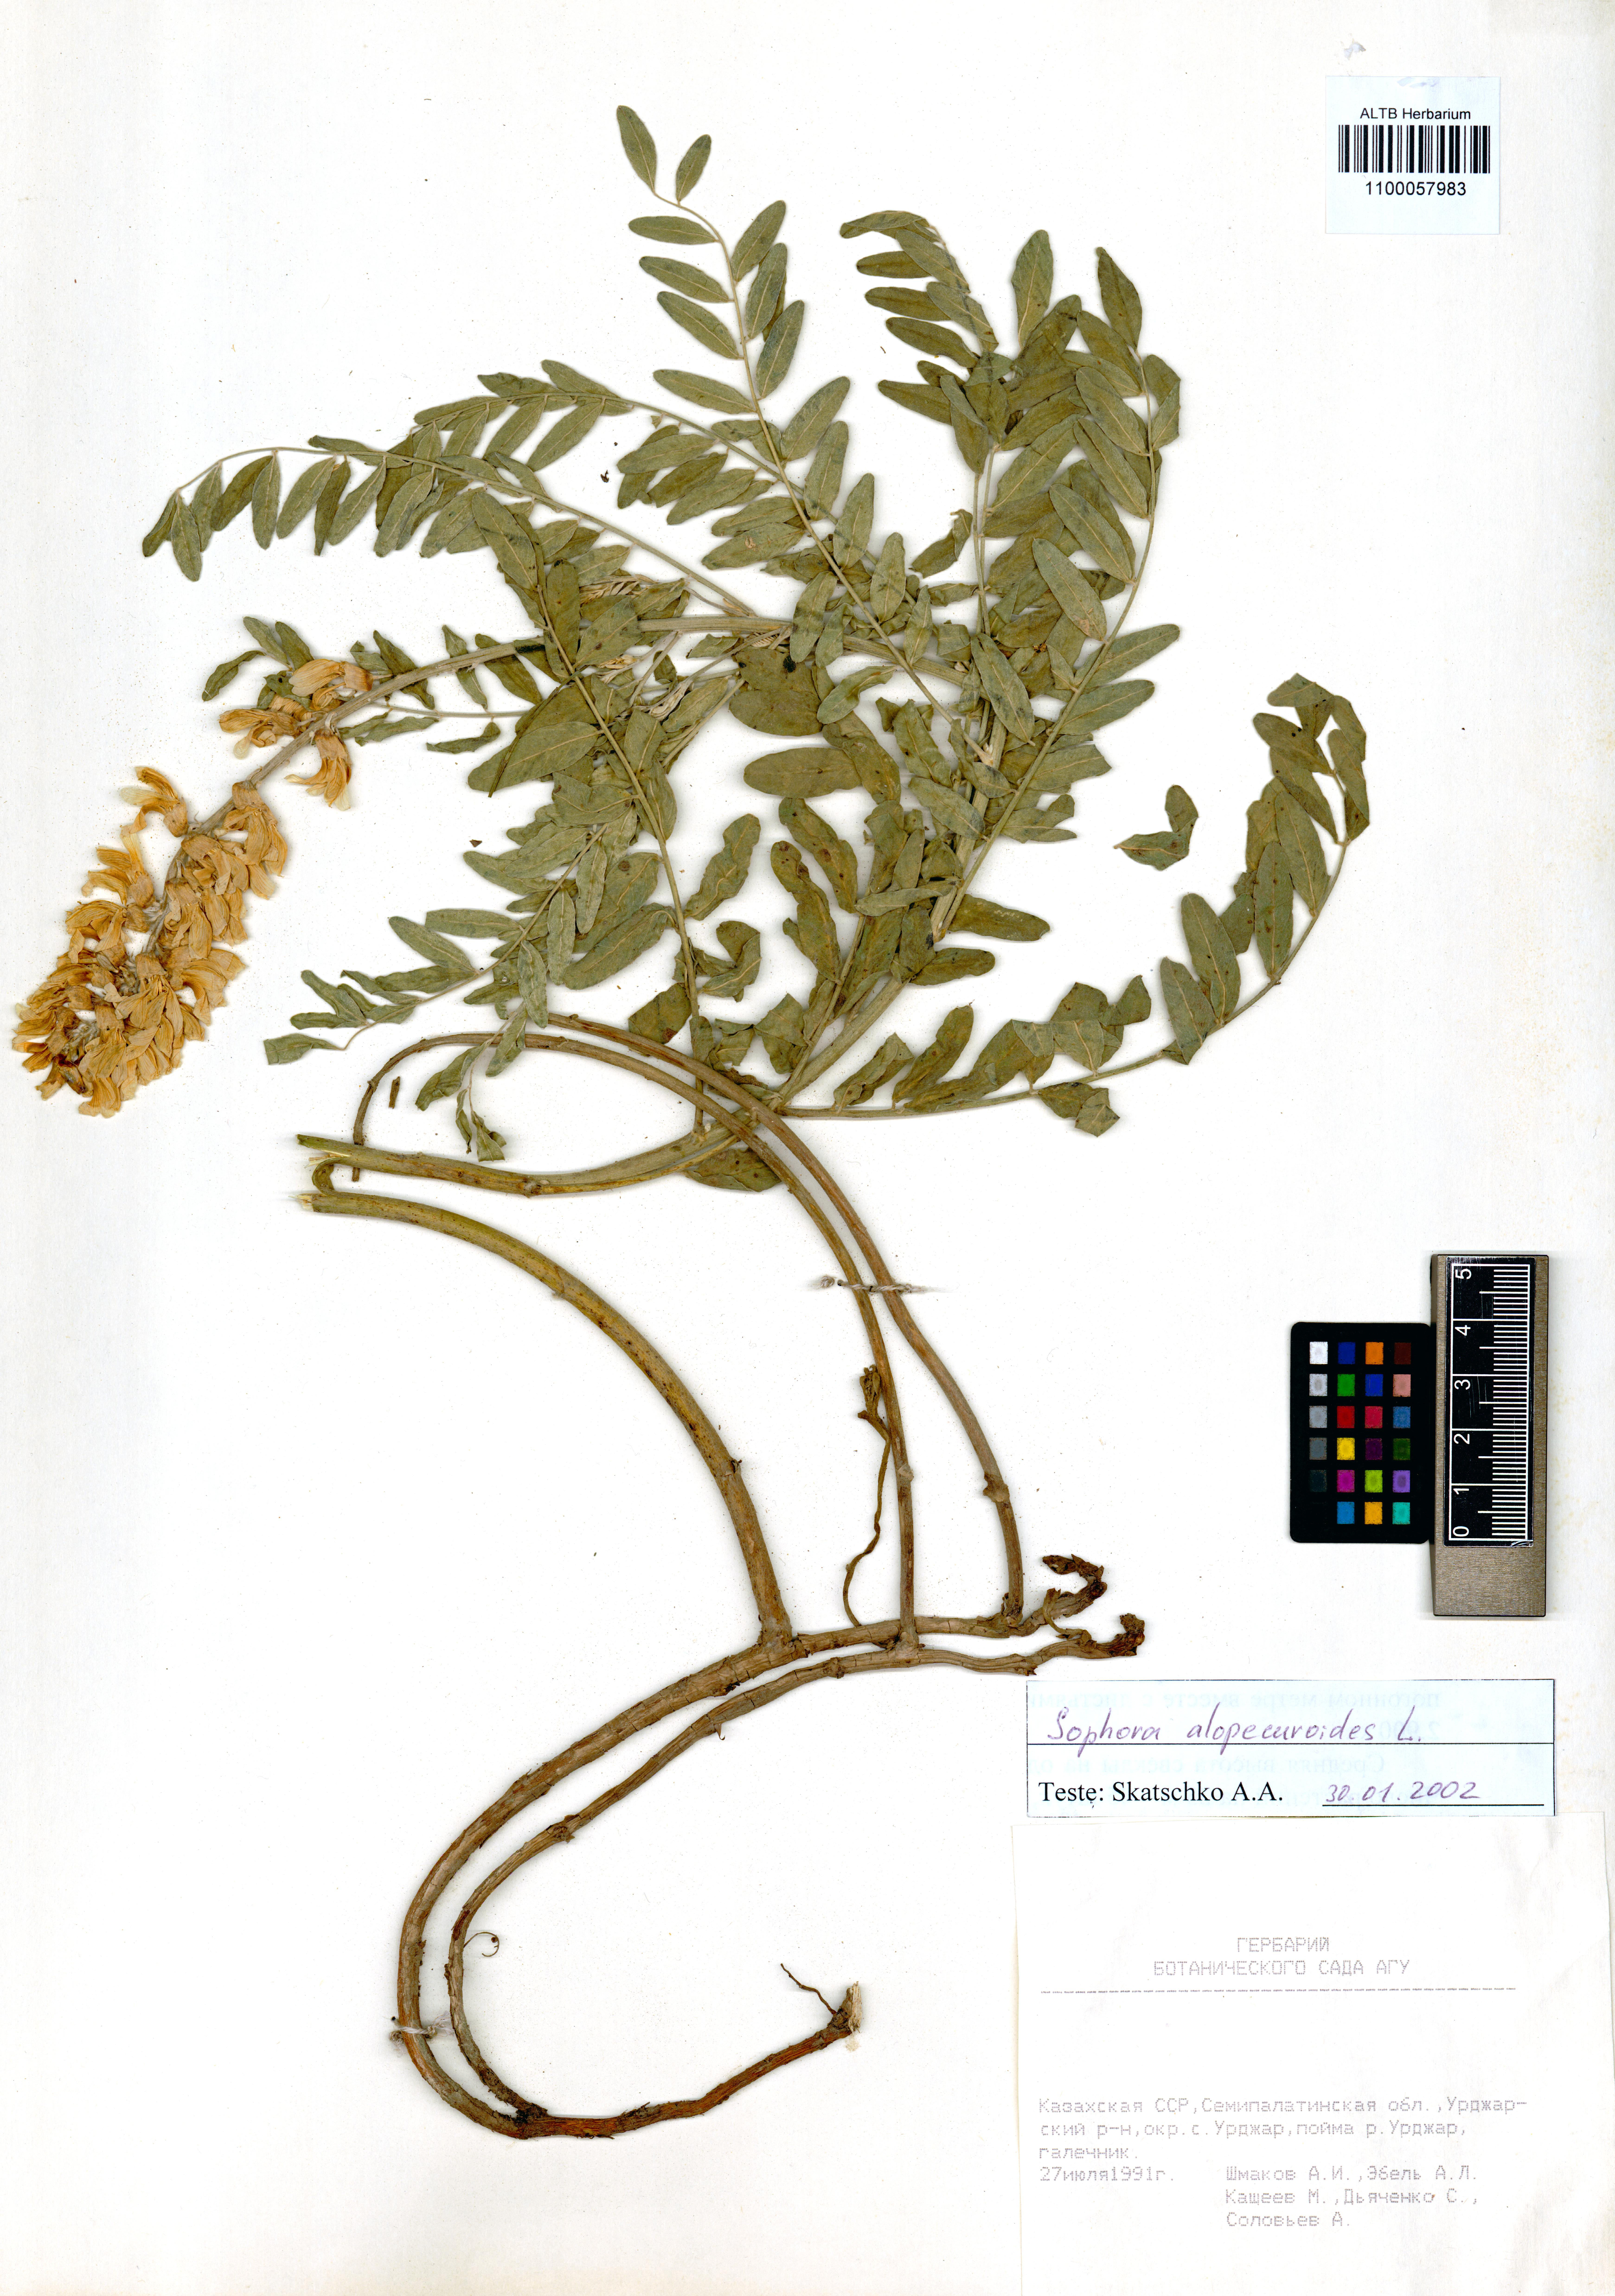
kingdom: Plantae
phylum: Tracheophyta
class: Magnoliopsida
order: Fabales
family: Fabaceae
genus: Sophora
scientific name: Sophora alopecuroides
